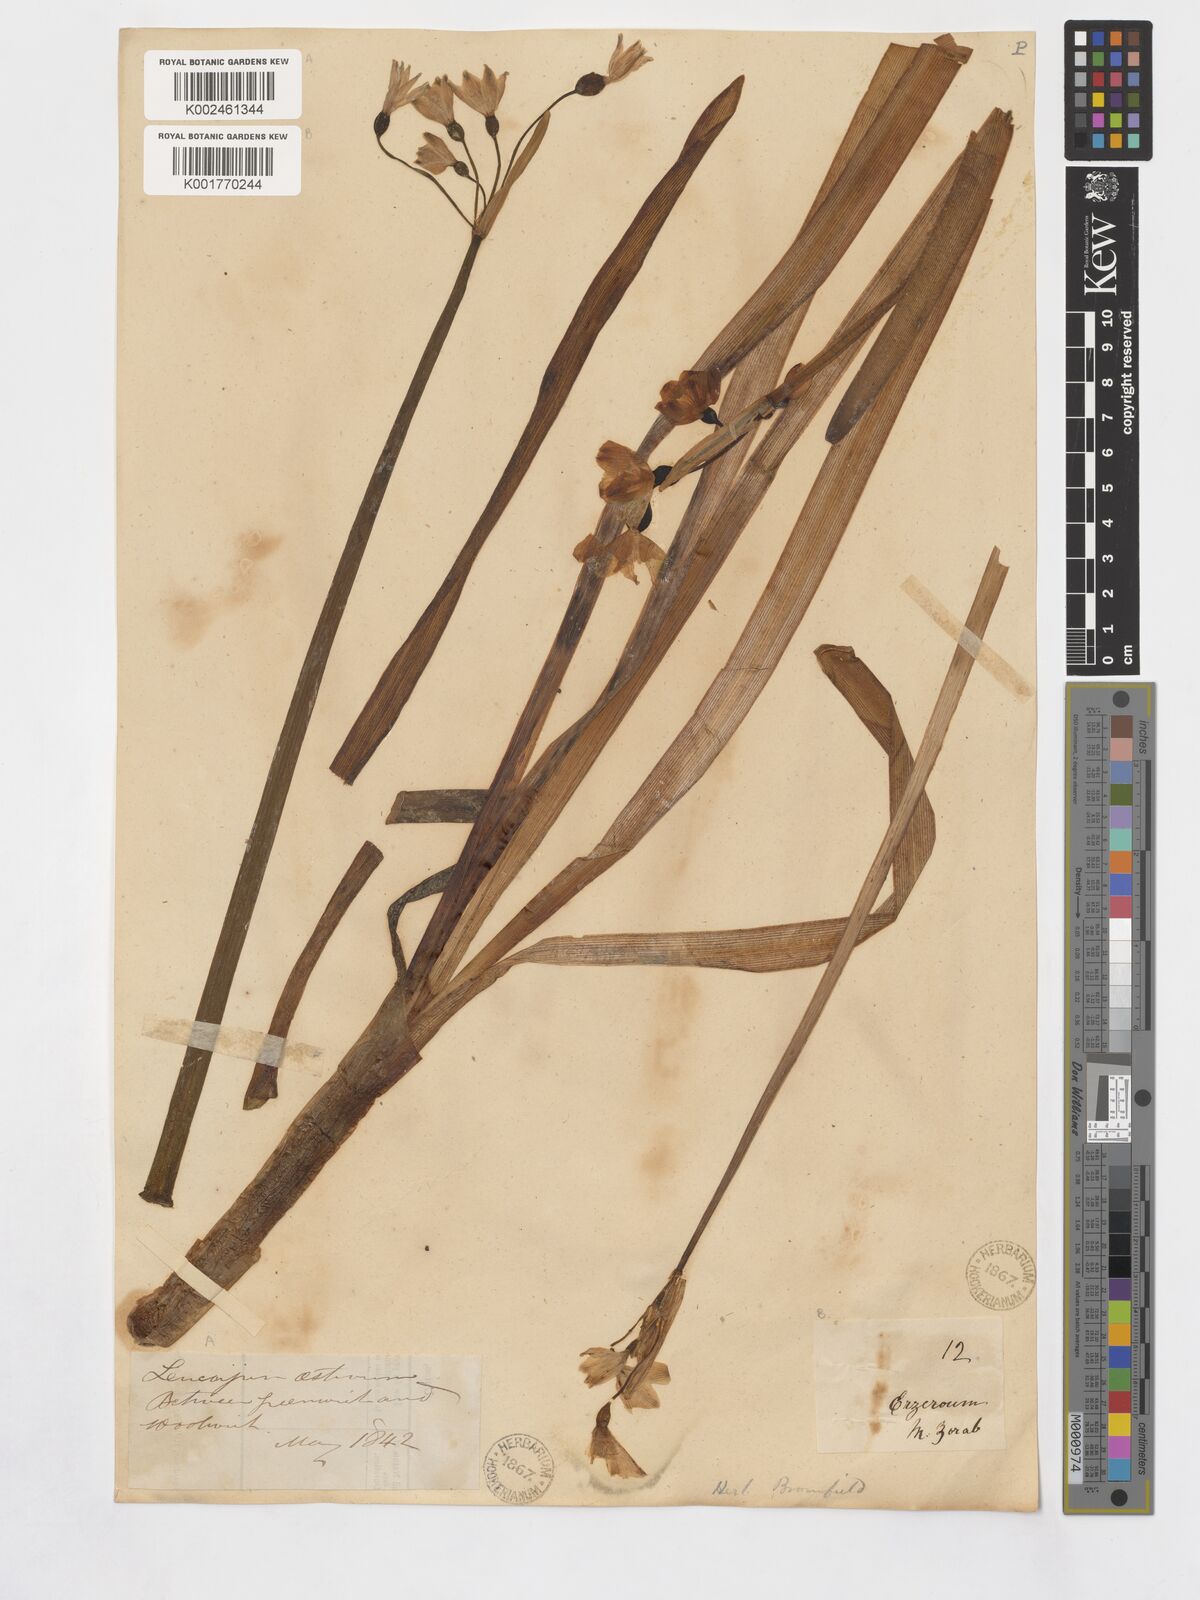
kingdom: Plantae
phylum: Tracheophyta
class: Liliopsida
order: Asparagales
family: Amaryllidaceae
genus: Leucojum
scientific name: Leucojum aestivum
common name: Summer snowflake
